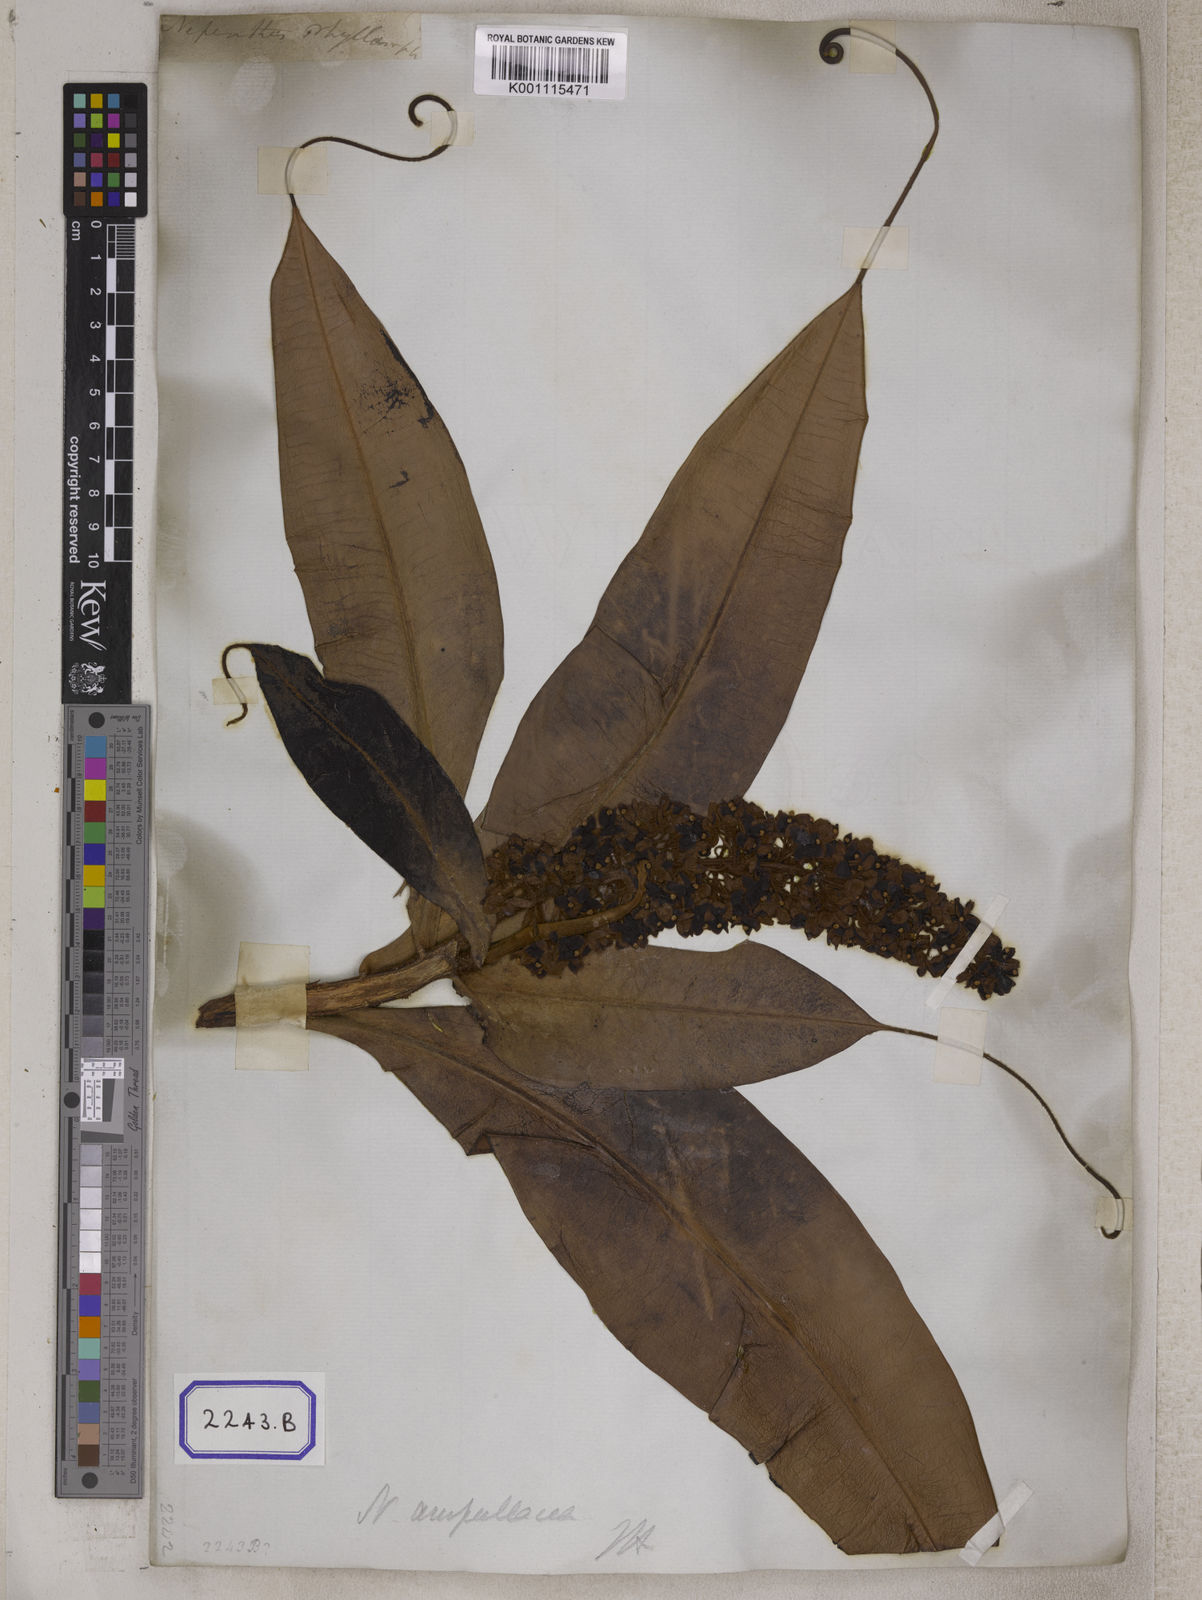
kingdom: Plantae
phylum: Tracheophyta
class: Magnoliopsida
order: Caryophyllales
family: Nepenthaceae
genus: Nepenthes
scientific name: Nepenthes ampullaria
